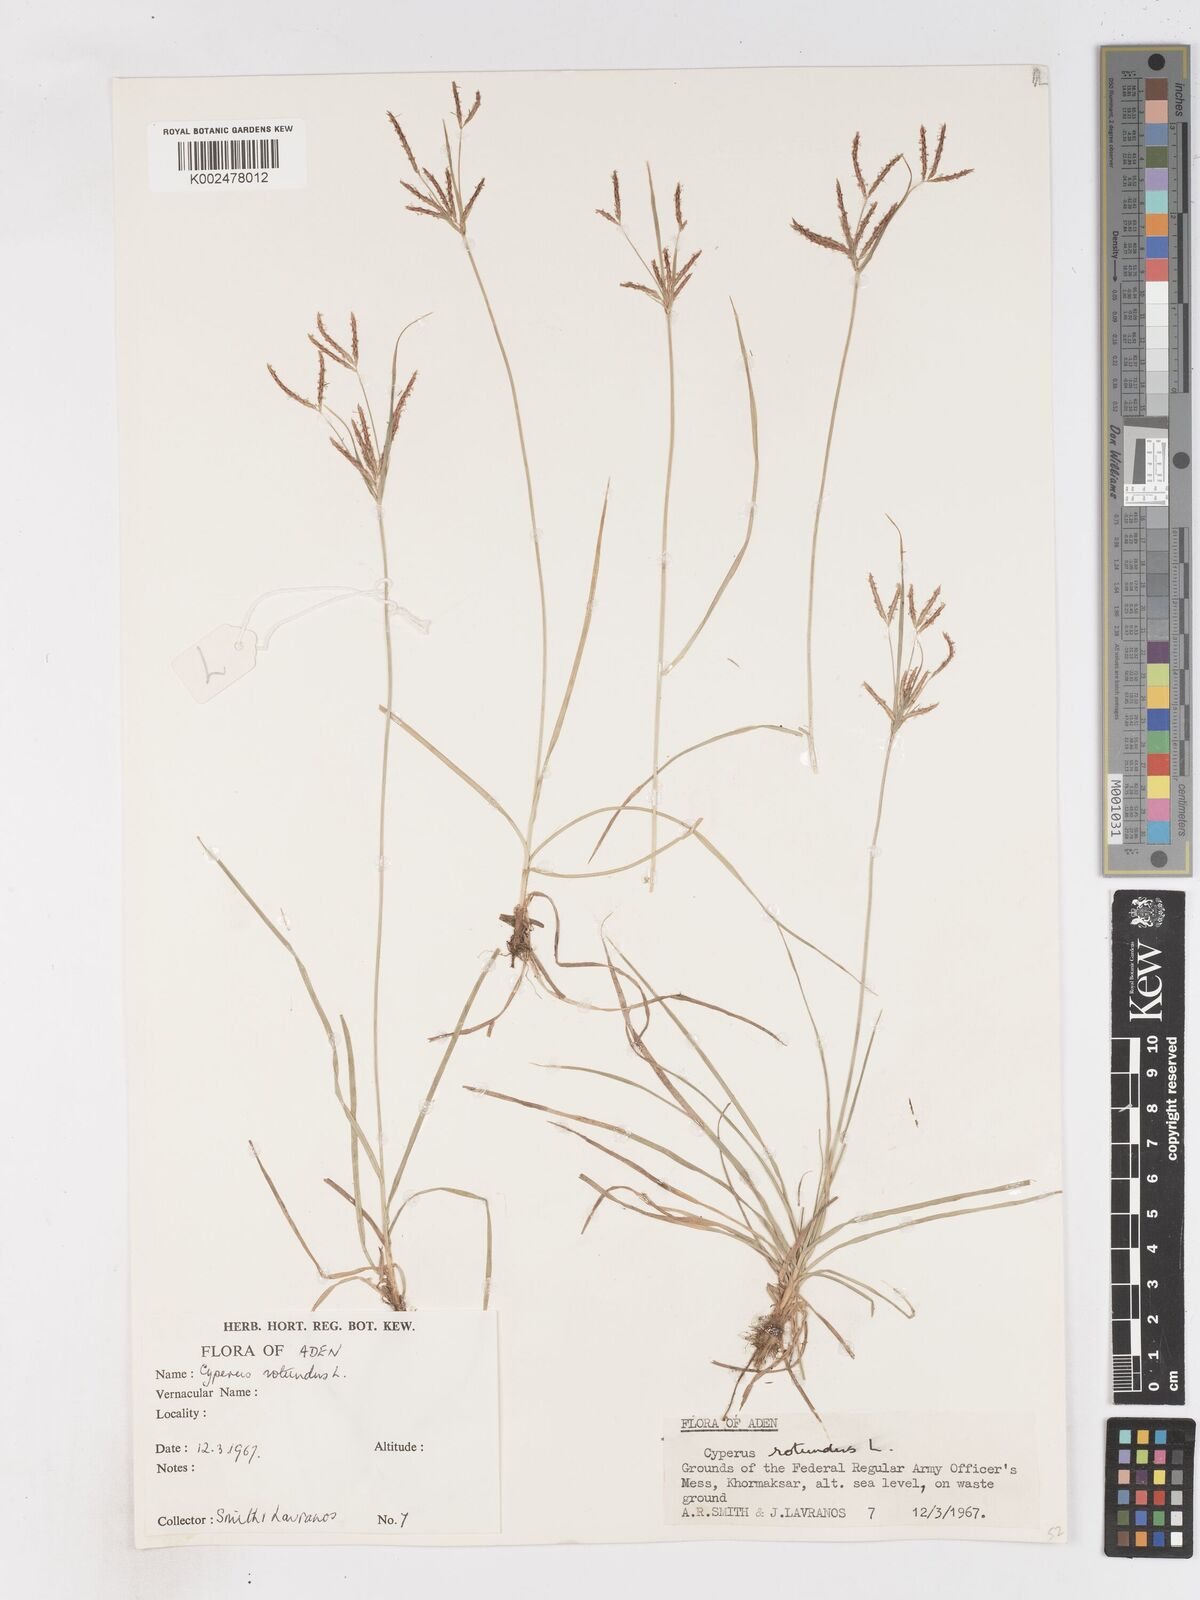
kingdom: Plantae
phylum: Tracheophyta
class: Liliopsida
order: Poales
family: Cyperaceae
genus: Cyperus
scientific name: Cyperus rotundus
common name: Nutgrass
